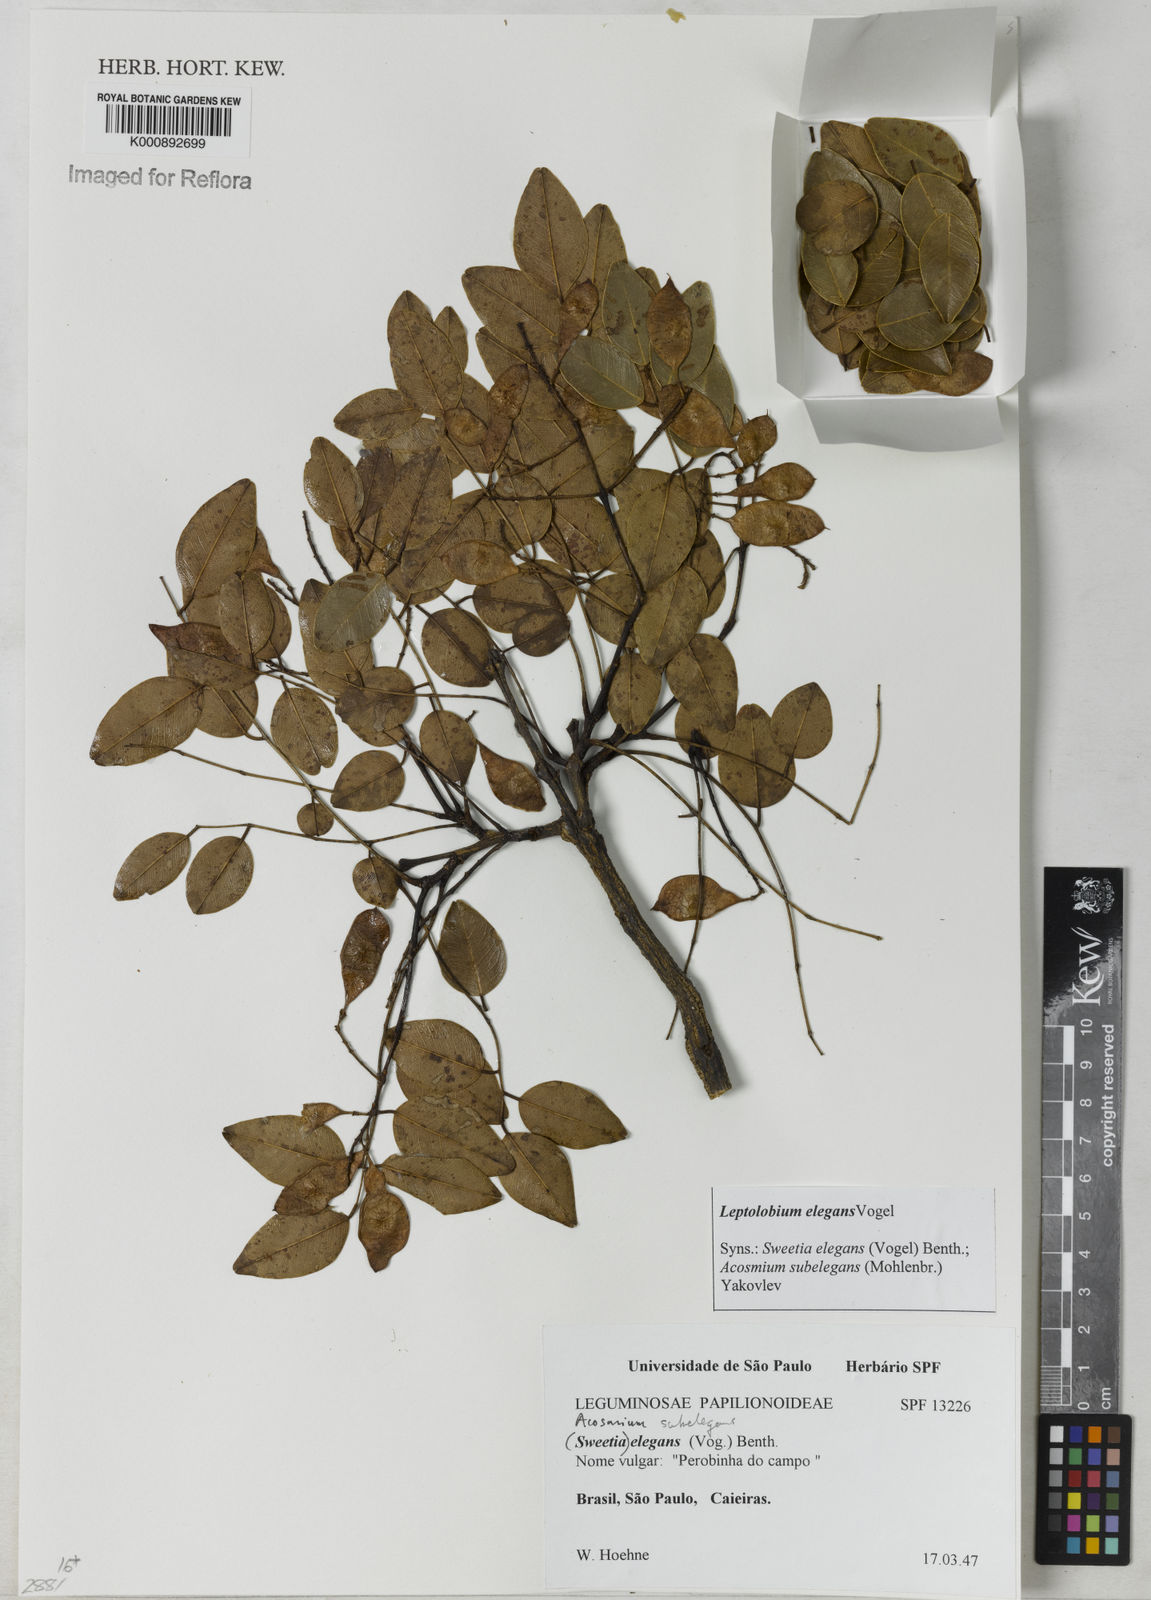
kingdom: Plantae
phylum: Tracheophyta
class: Magnoliopsida
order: Fabales
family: Fabaceae
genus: Leptolobium
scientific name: Leptolobium elegans
